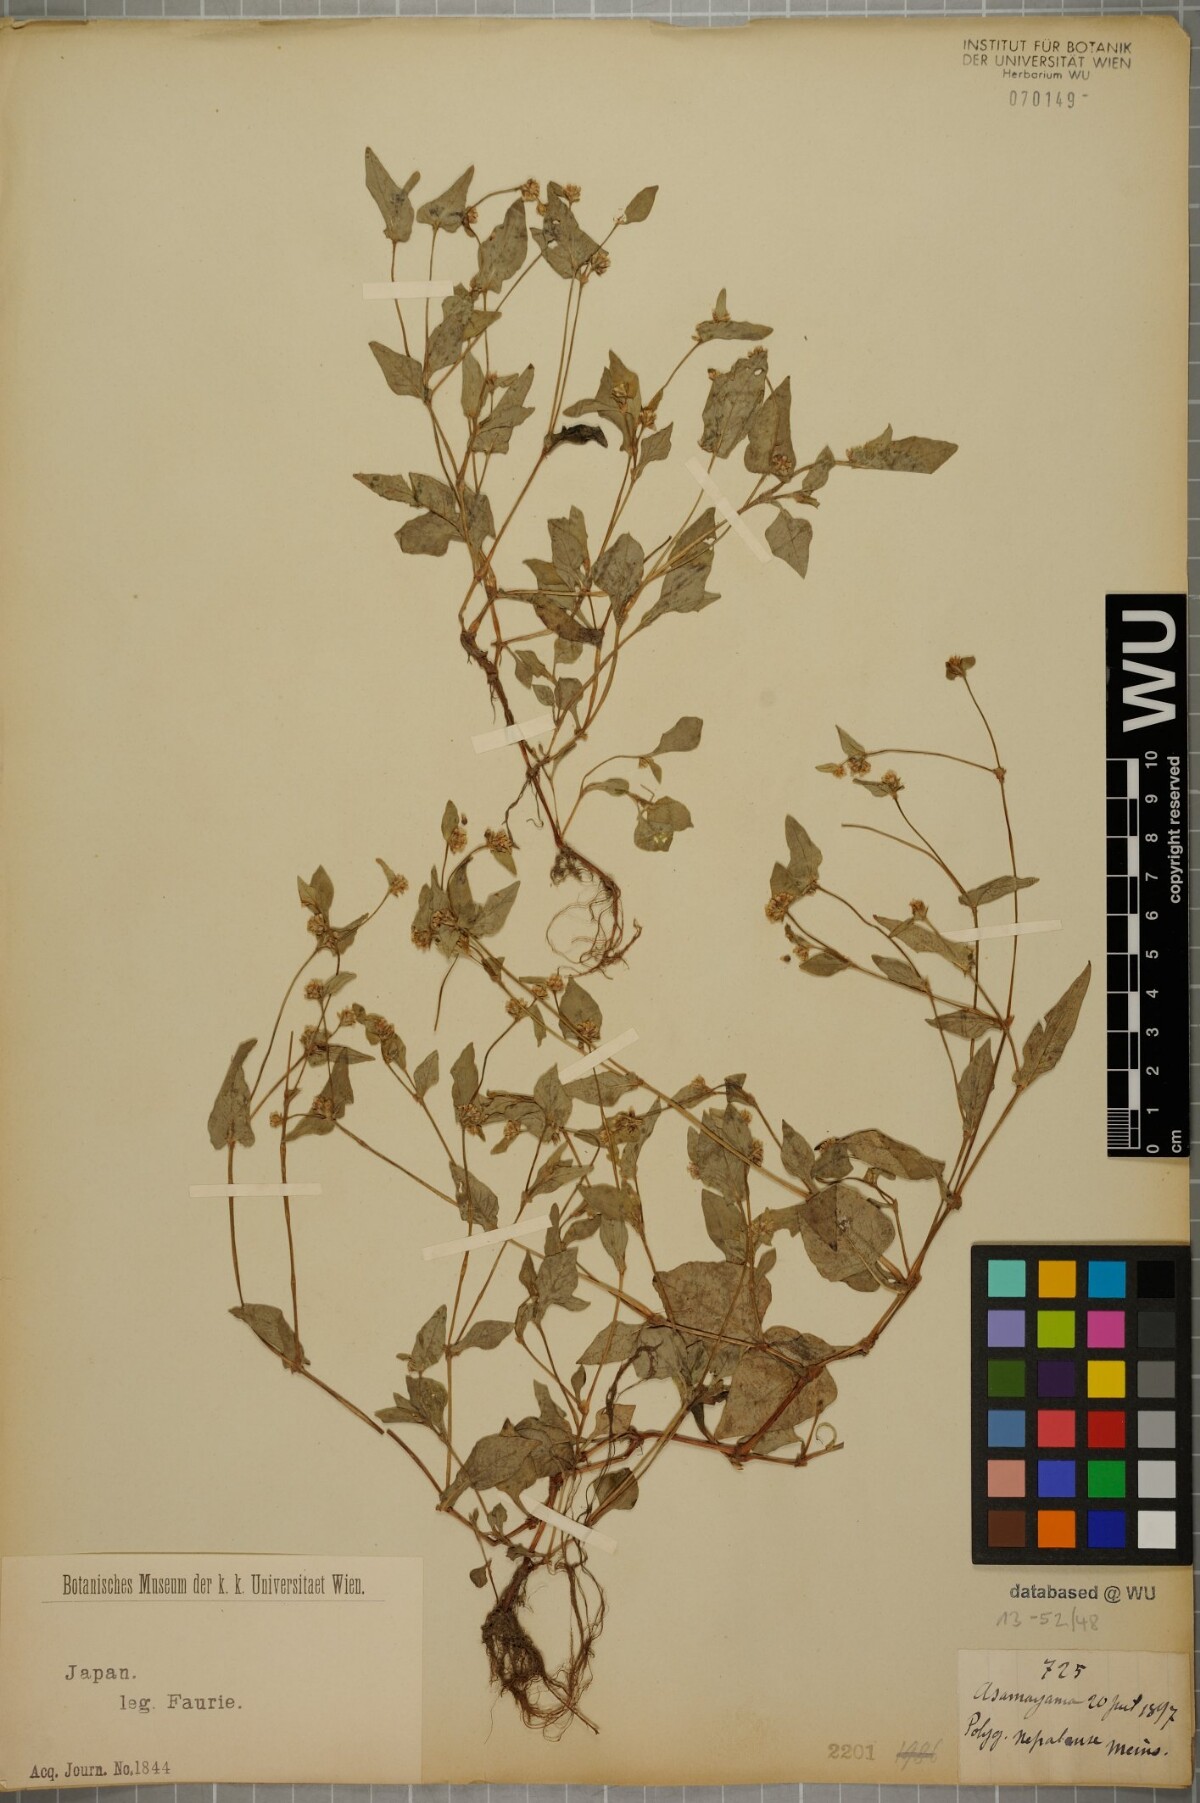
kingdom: Plantae
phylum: Tracheophyta
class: Magnoliopsida
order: Caryophyllales
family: Polygonaceae
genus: Persicaria
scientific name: Persicaria nepalensis
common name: Nepal persicaria
